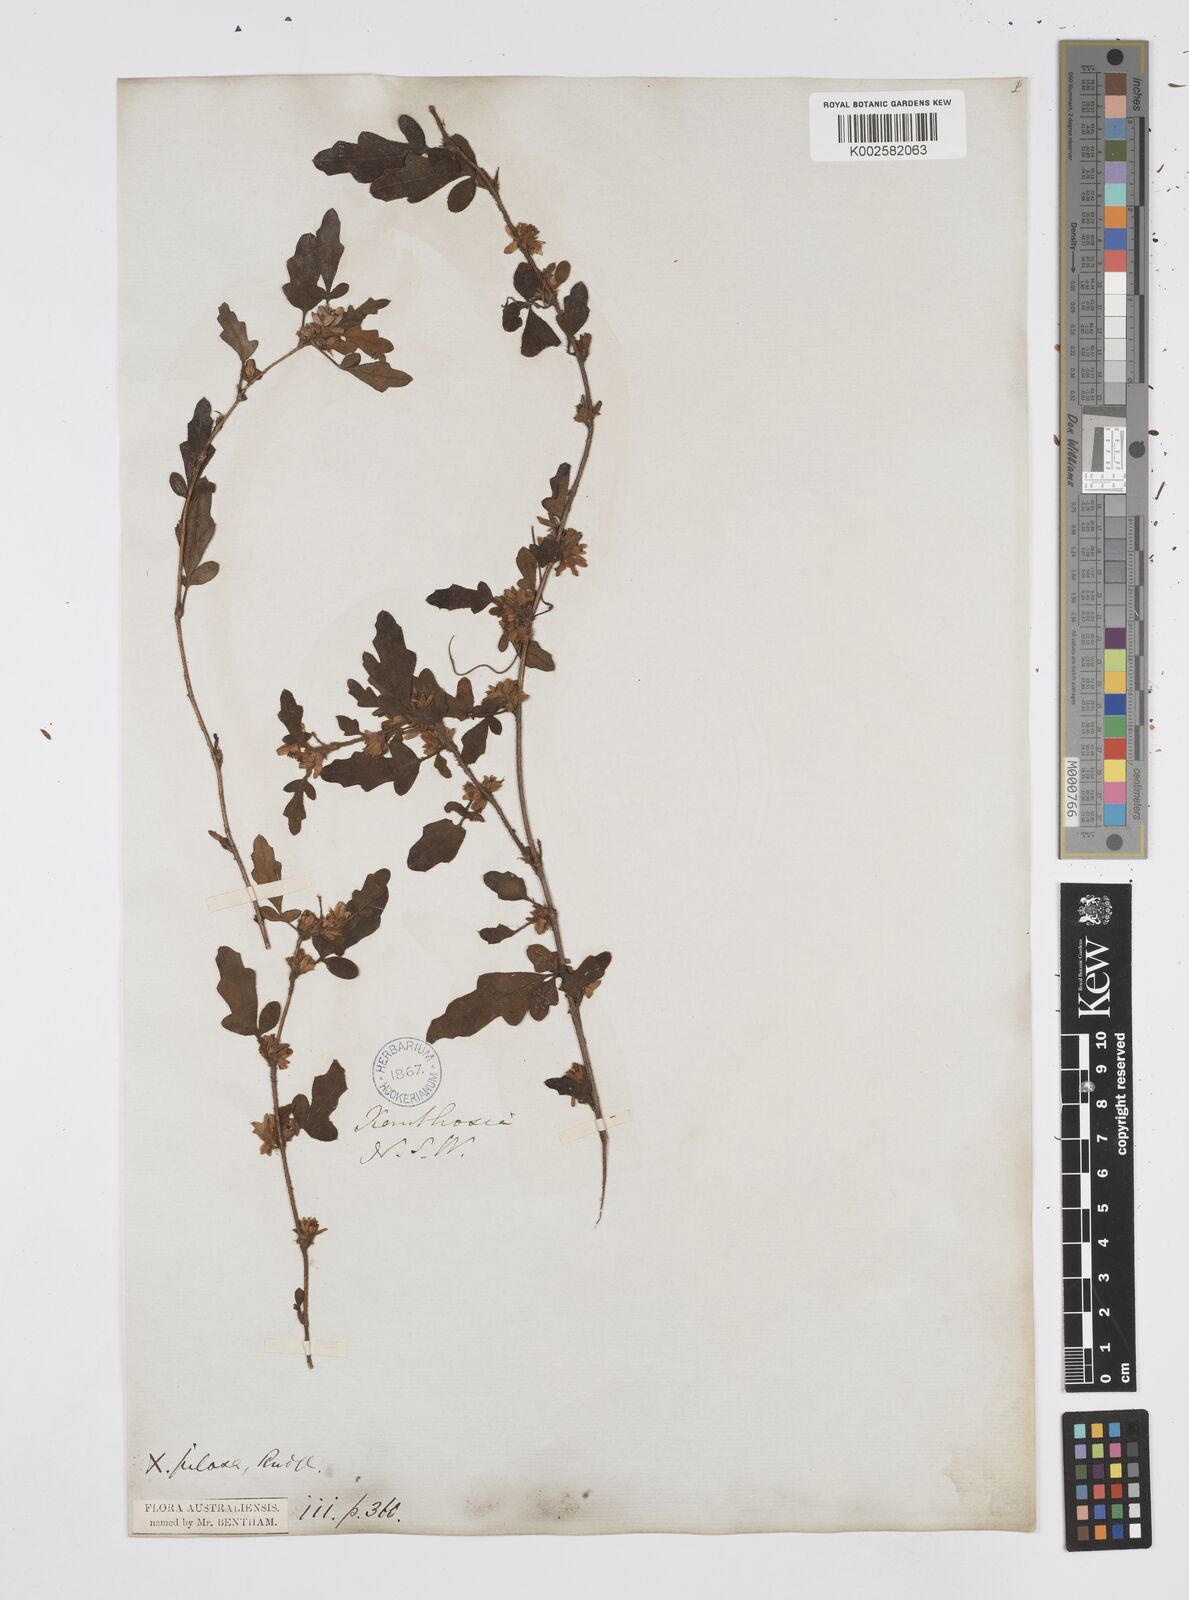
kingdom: Plantae
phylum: Tracheophyta
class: Magnoliopsida
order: Apiales
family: Apiaceae
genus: Xanthosia
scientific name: Xanthosia pilosa
